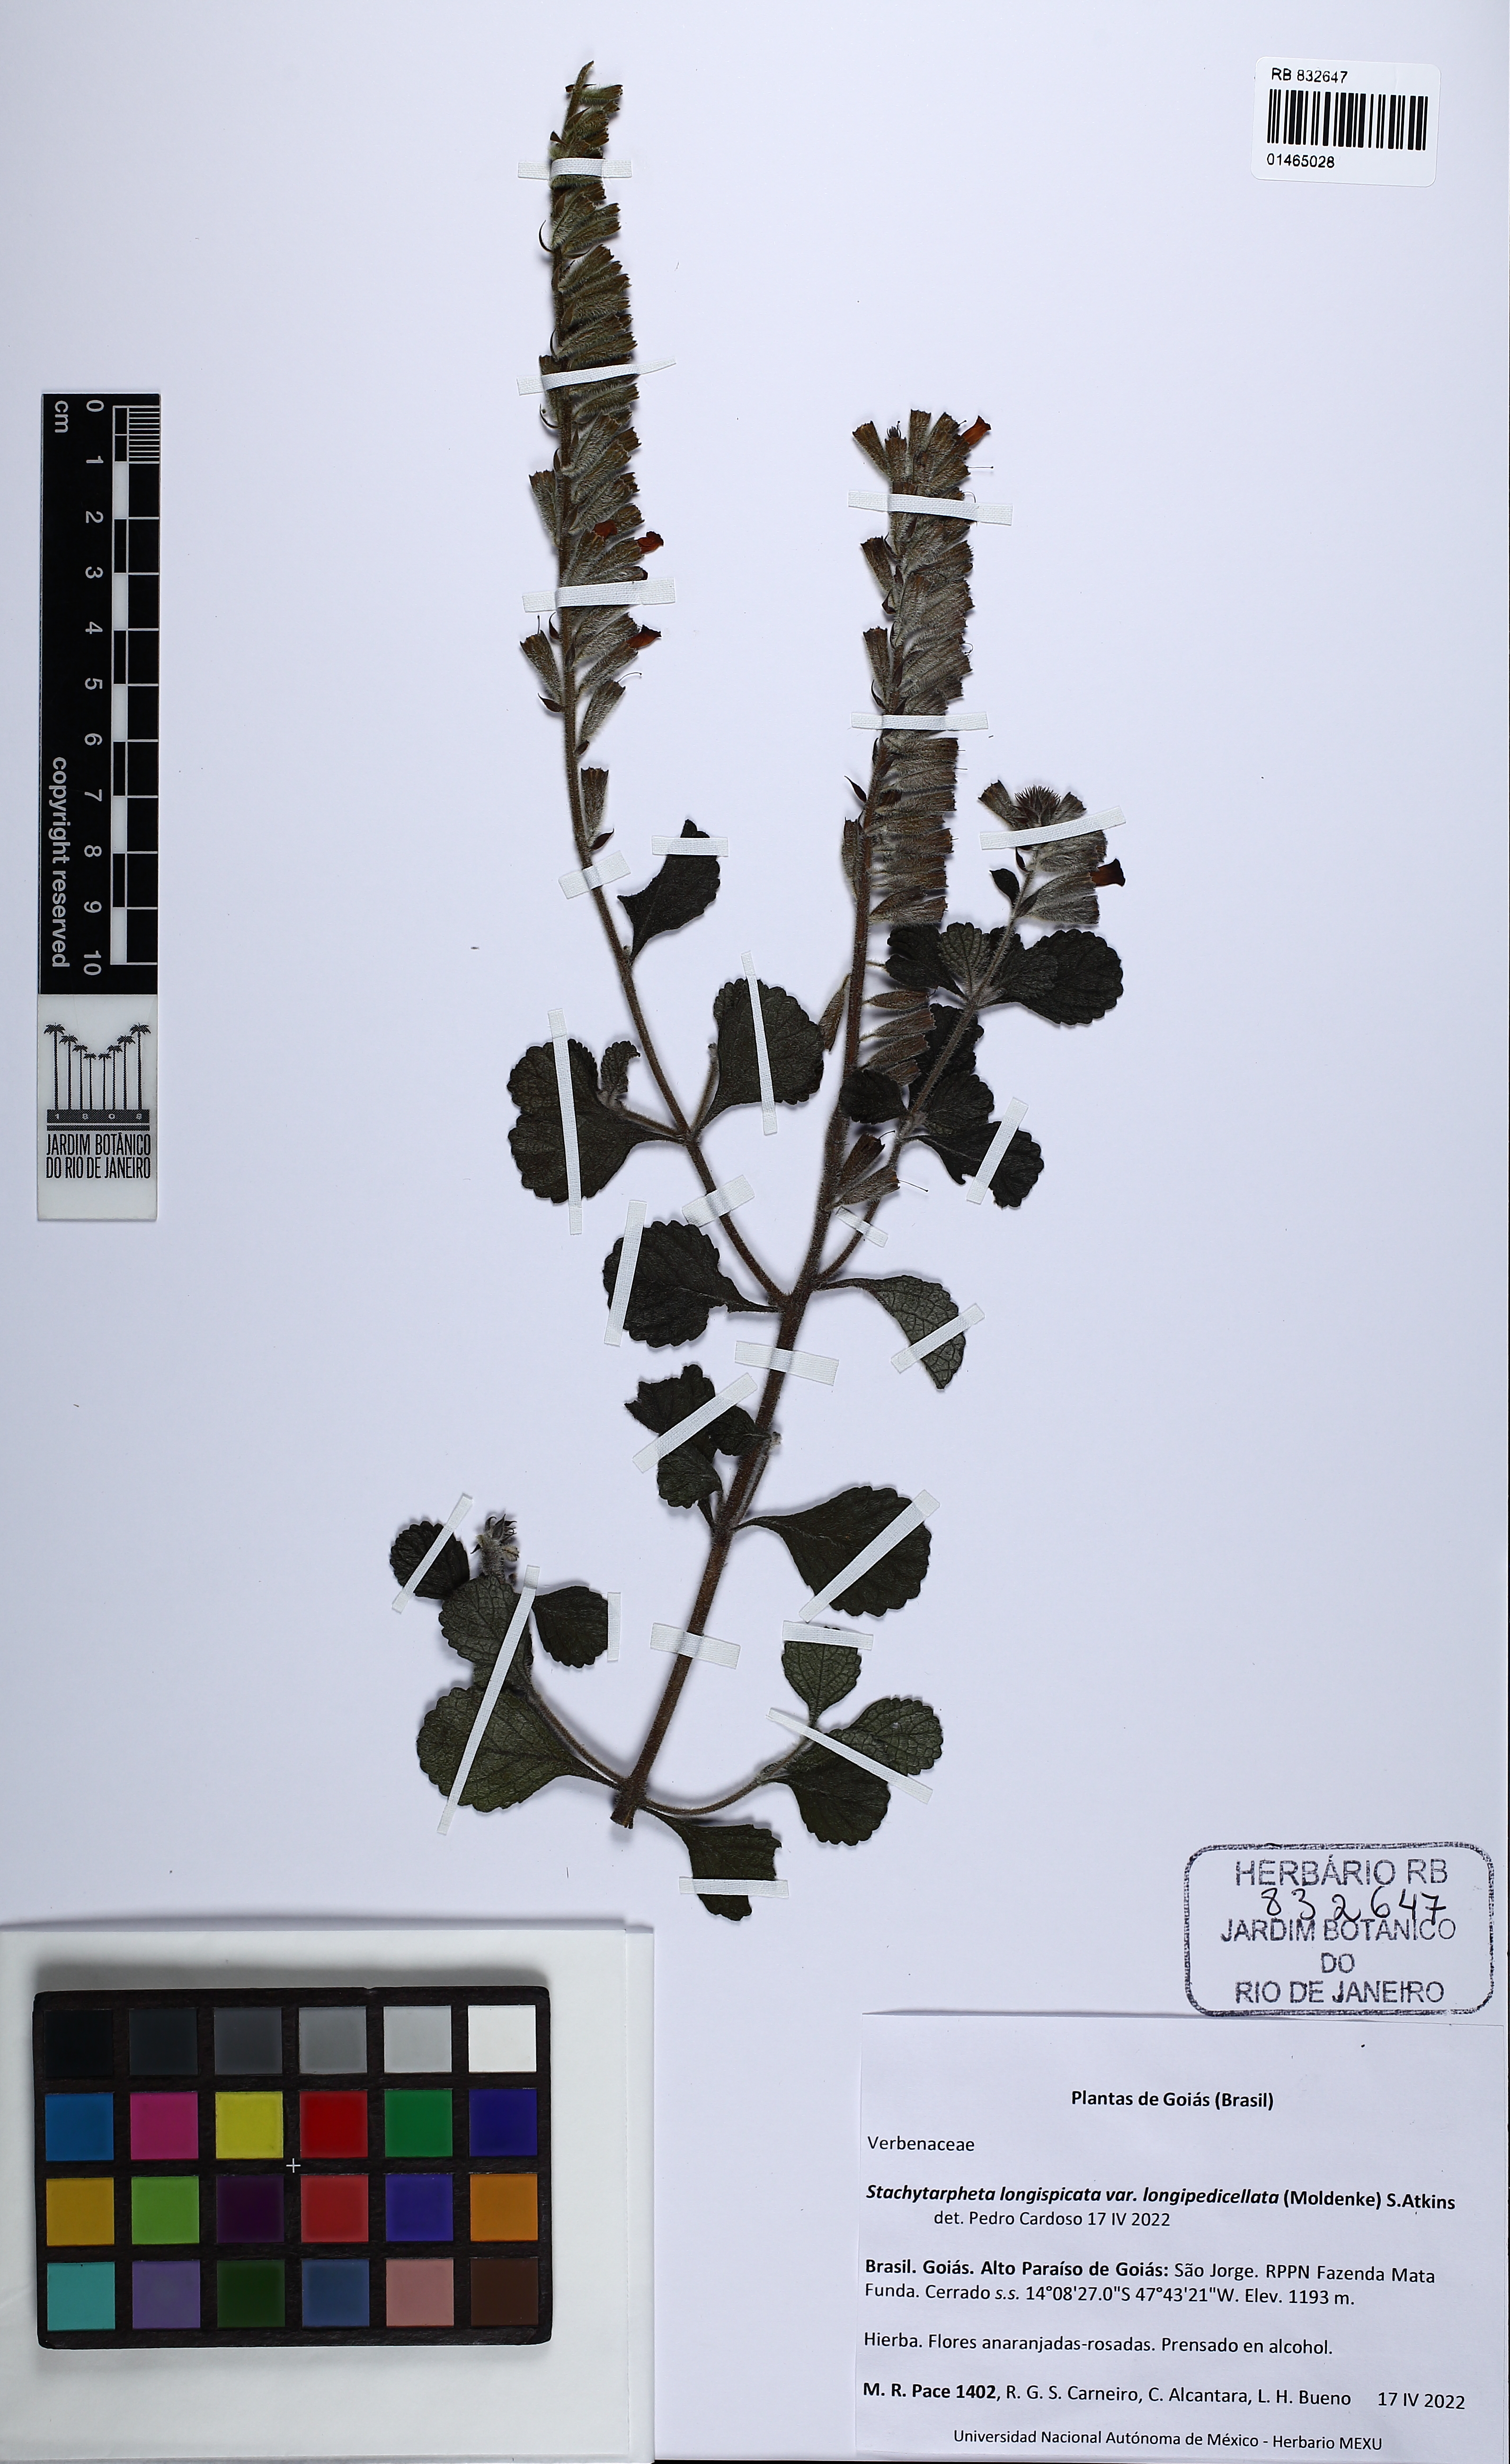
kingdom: Plantae
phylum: Tracheophyta
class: Magnoliopsida
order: Lamiales
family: Verbenaceae
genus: Stachytarpheta
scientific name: Stachytarpheta longispicata
